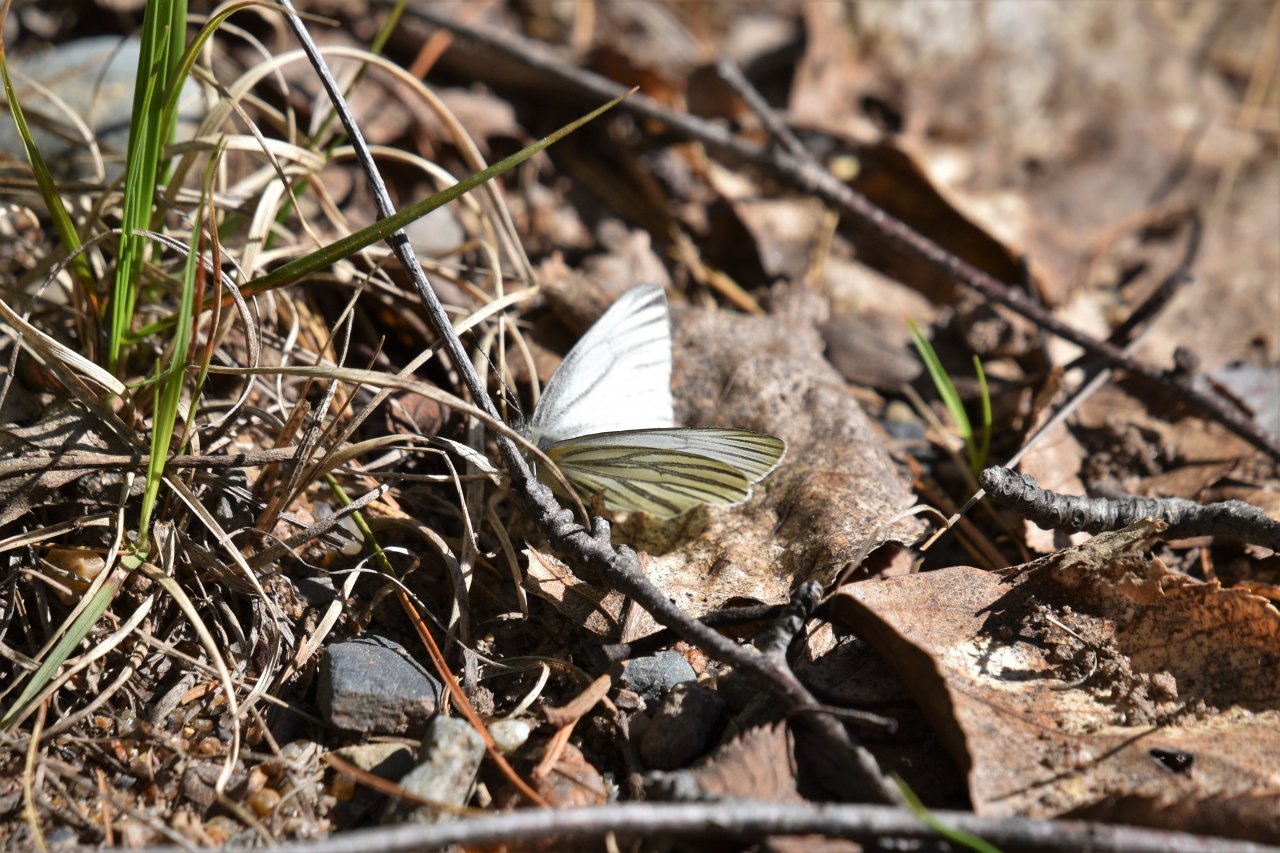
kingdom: Animalia
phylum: Arthropoda
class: Insecta
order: Lepidoptera
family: Pieridae
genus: Pieris
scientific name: Pieris oleracea
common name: Mustard White
